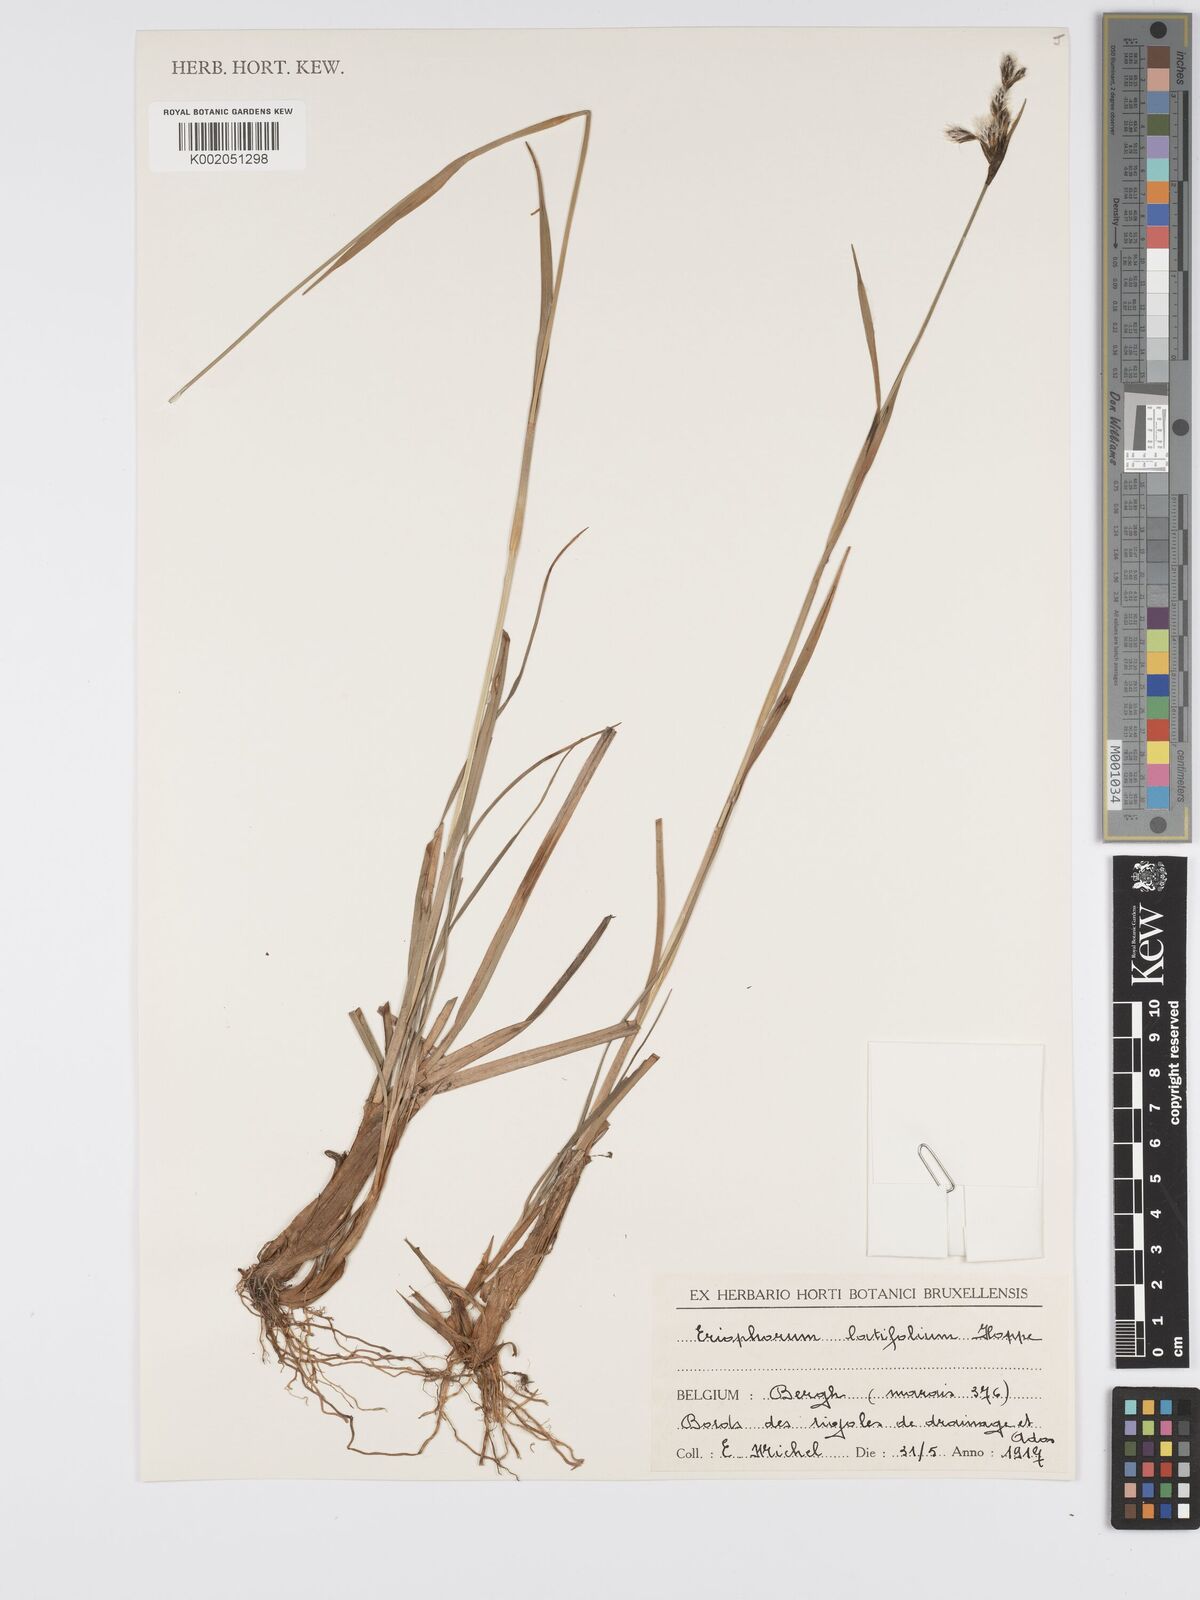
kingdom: Plantae
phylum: Tracheophyta
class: Liliopsida
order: Poales
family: Cyperaceae
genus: Eriophorum
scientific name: Eriophorum latifolium
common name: Broad-leaved cottongrass
